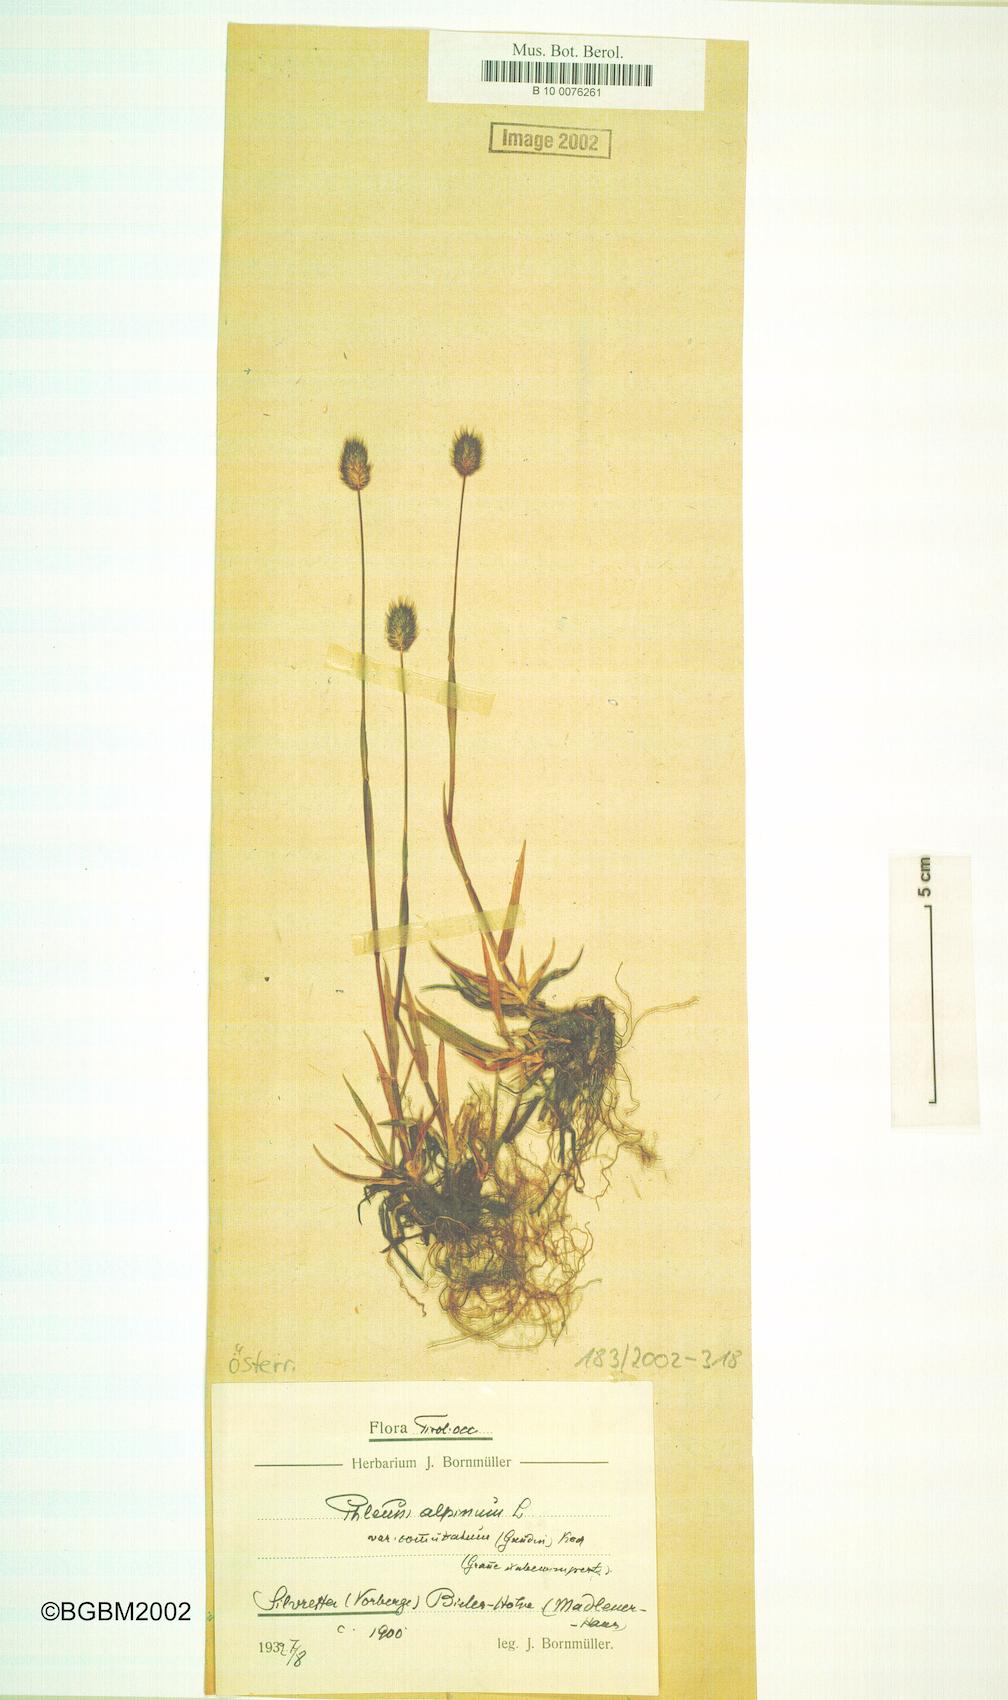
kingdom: Plantae
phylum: Tracheophyta
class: Liliopsida
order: Poales
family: Poaceae
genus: Phleum
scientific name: Phleum alpinum
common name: Alpine cat's-tail
